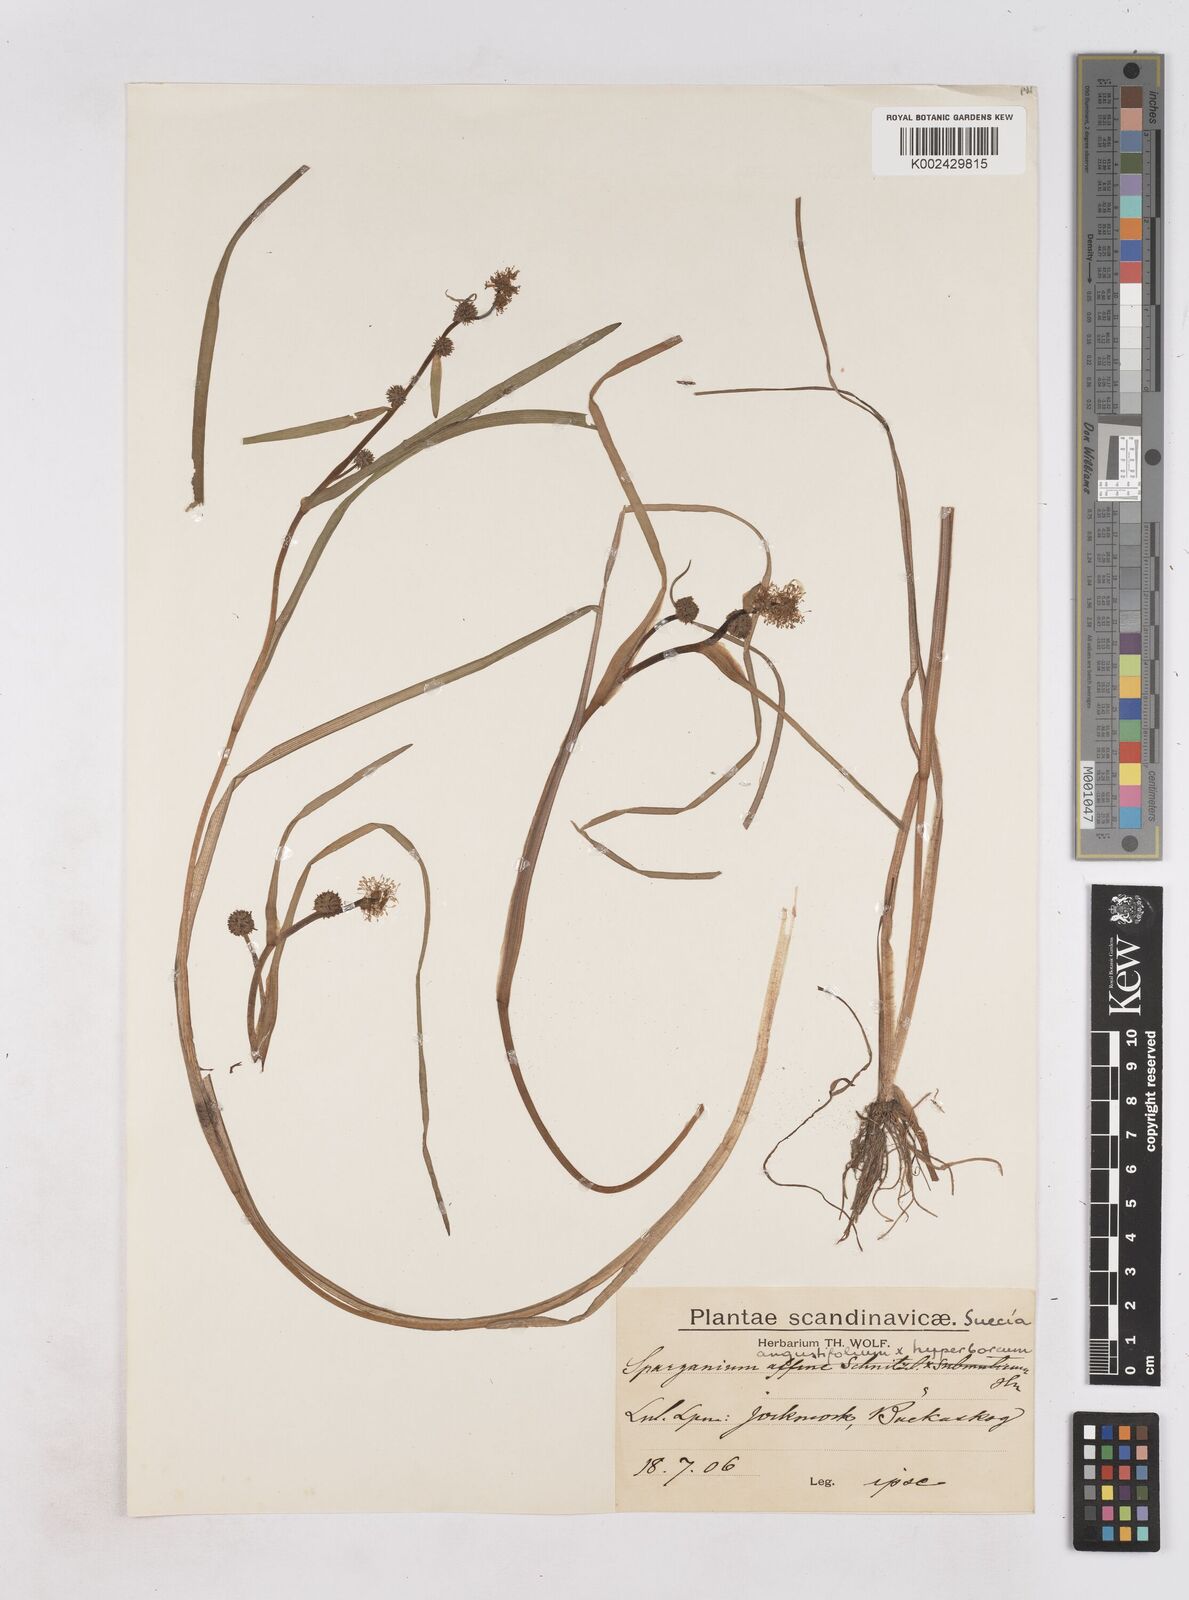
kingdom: Plantae
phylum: Tracheophyta
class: Liliopsida
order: Poales
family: Typhaceae
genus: Sparganium
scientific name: Sparganium
